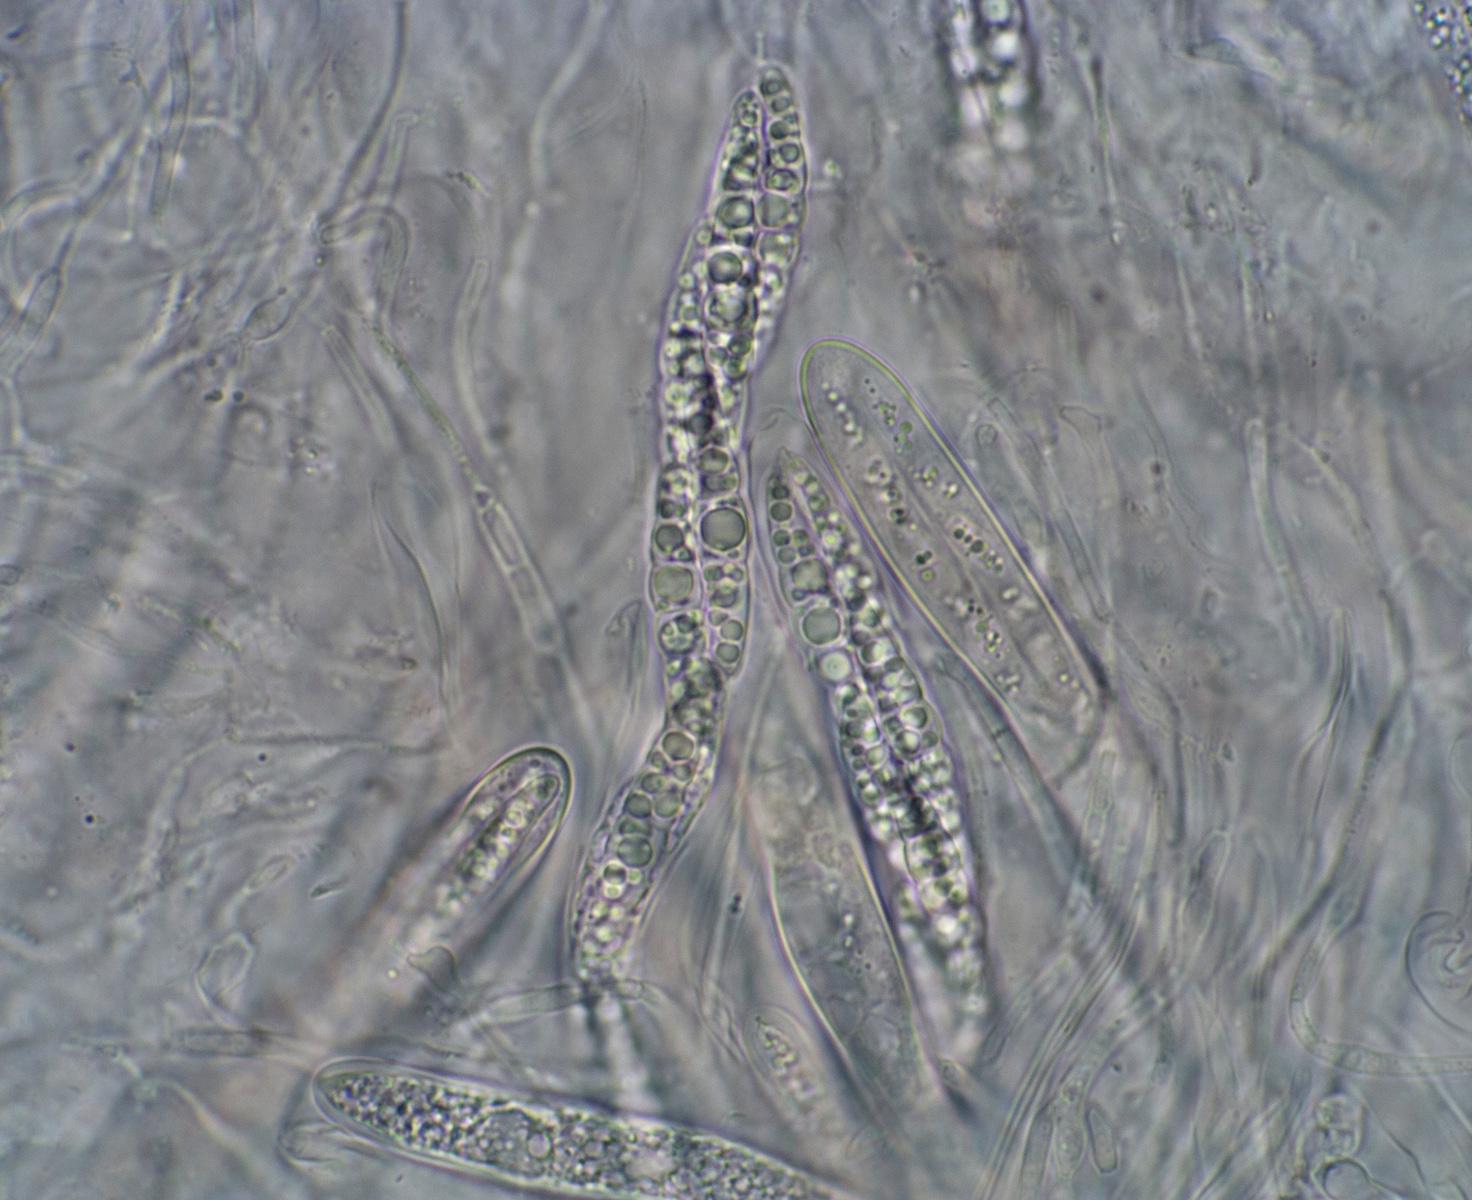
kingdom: Fungi
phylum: Ascomycota
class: Dothideomycetes
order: Pleosporales
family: Lophiostomataceae
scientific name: Lophiostomataceae
